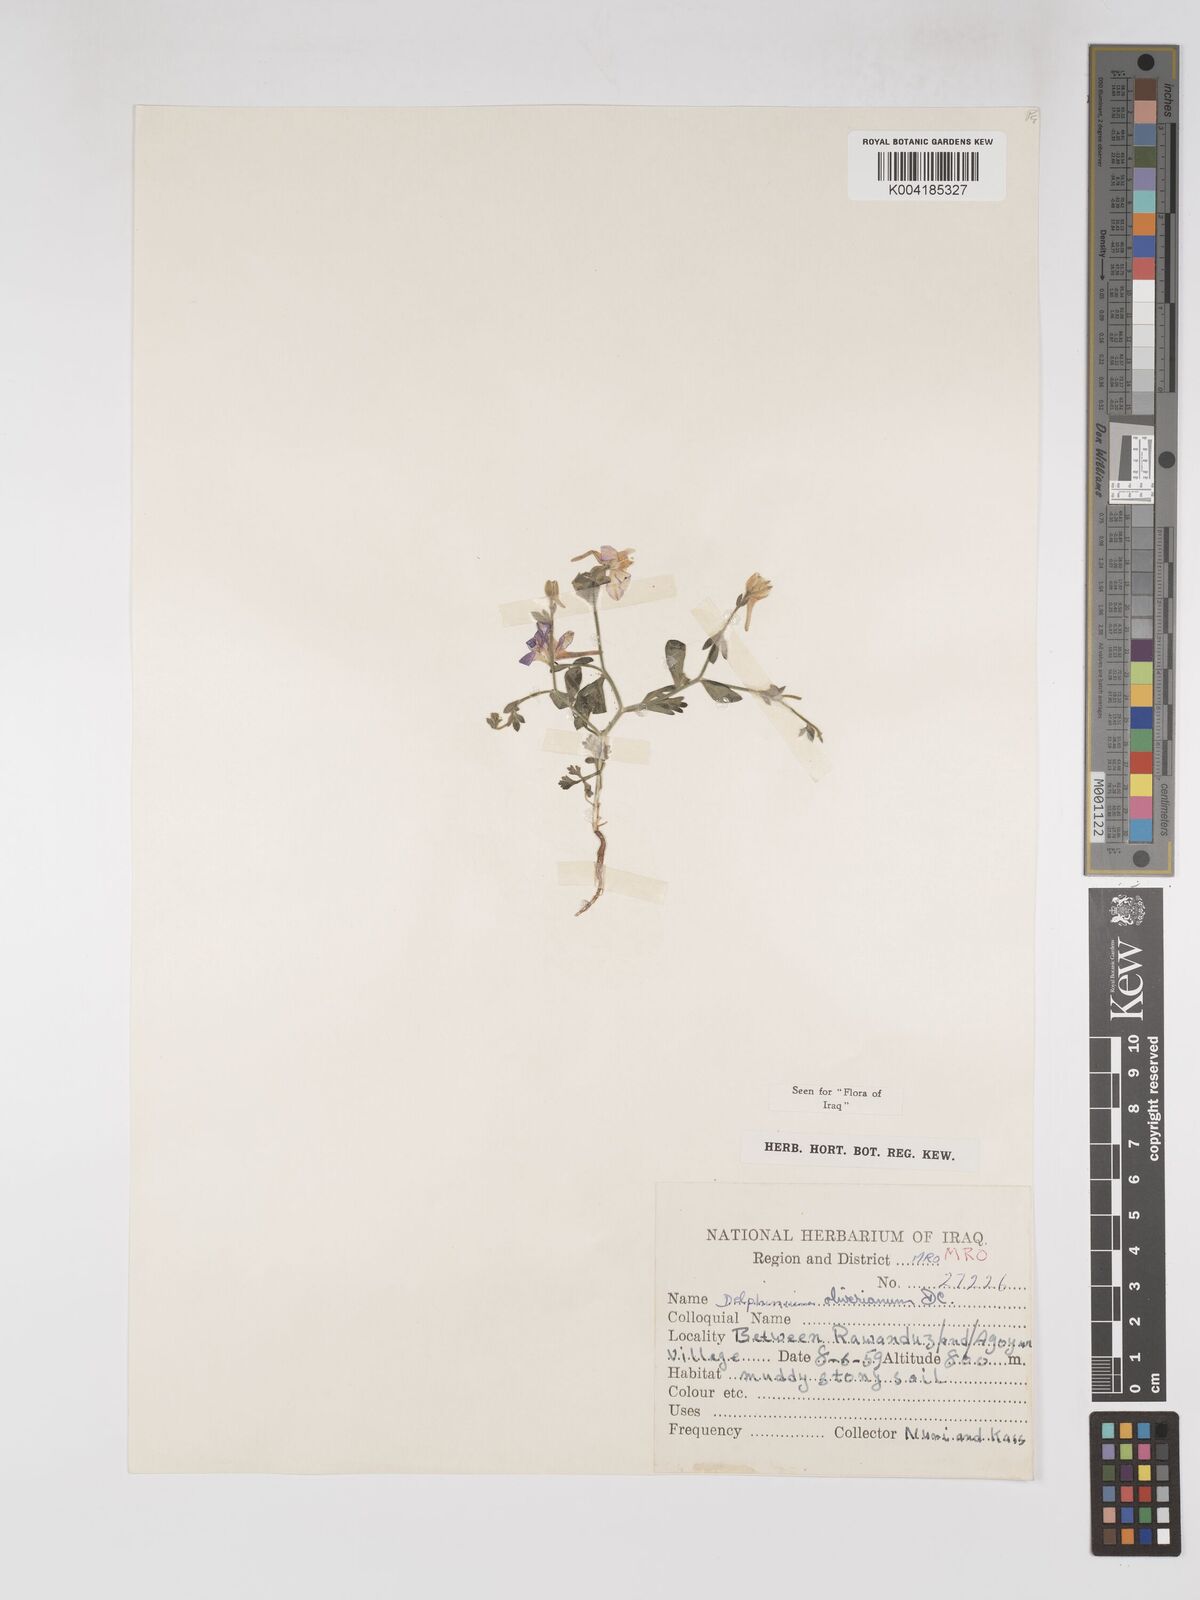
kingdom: Plantae
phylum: Tracheophyta
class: Magnoliopsida
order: Ranunculales
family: Ranunculaceae
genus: Delphinium
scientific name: Delphinium oliverianum
